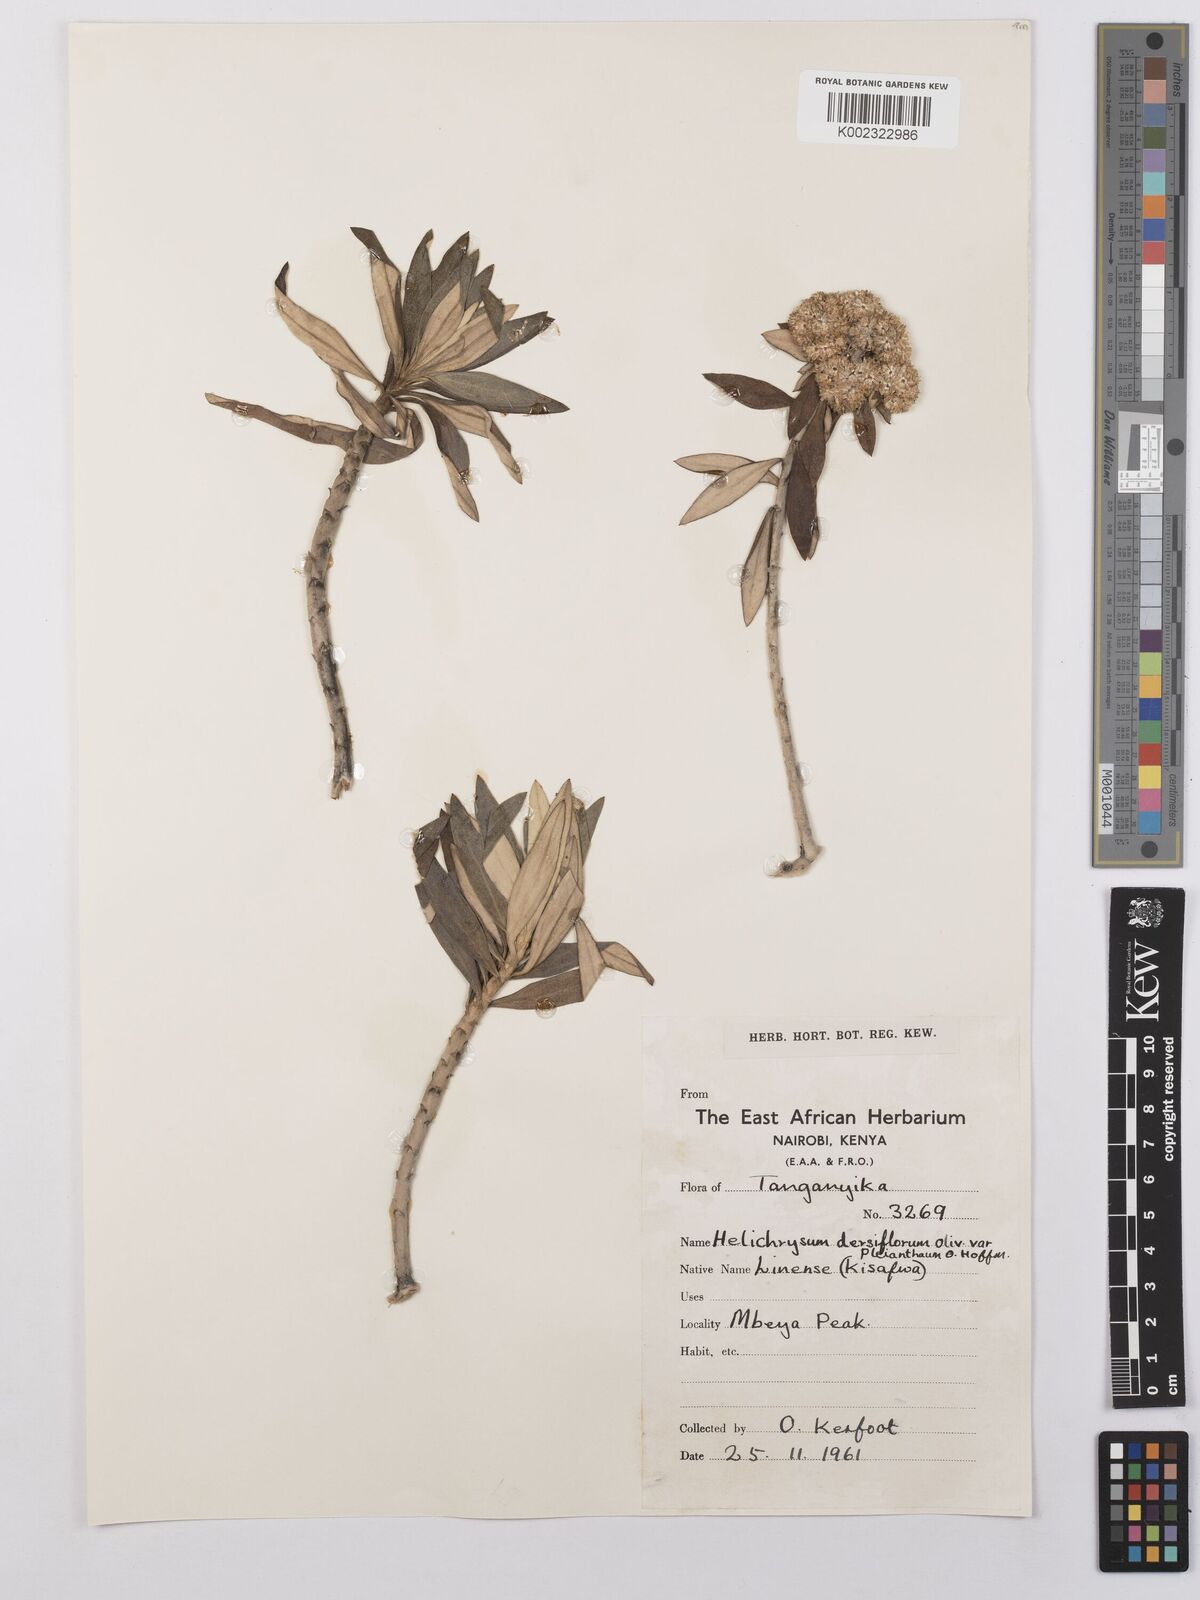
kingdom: Plantae
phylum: Tracheophyta
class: Magnoliopsida
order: Asterales
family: Asteraceae
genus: Helichrysum
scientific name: Helichrysum densiflorum
